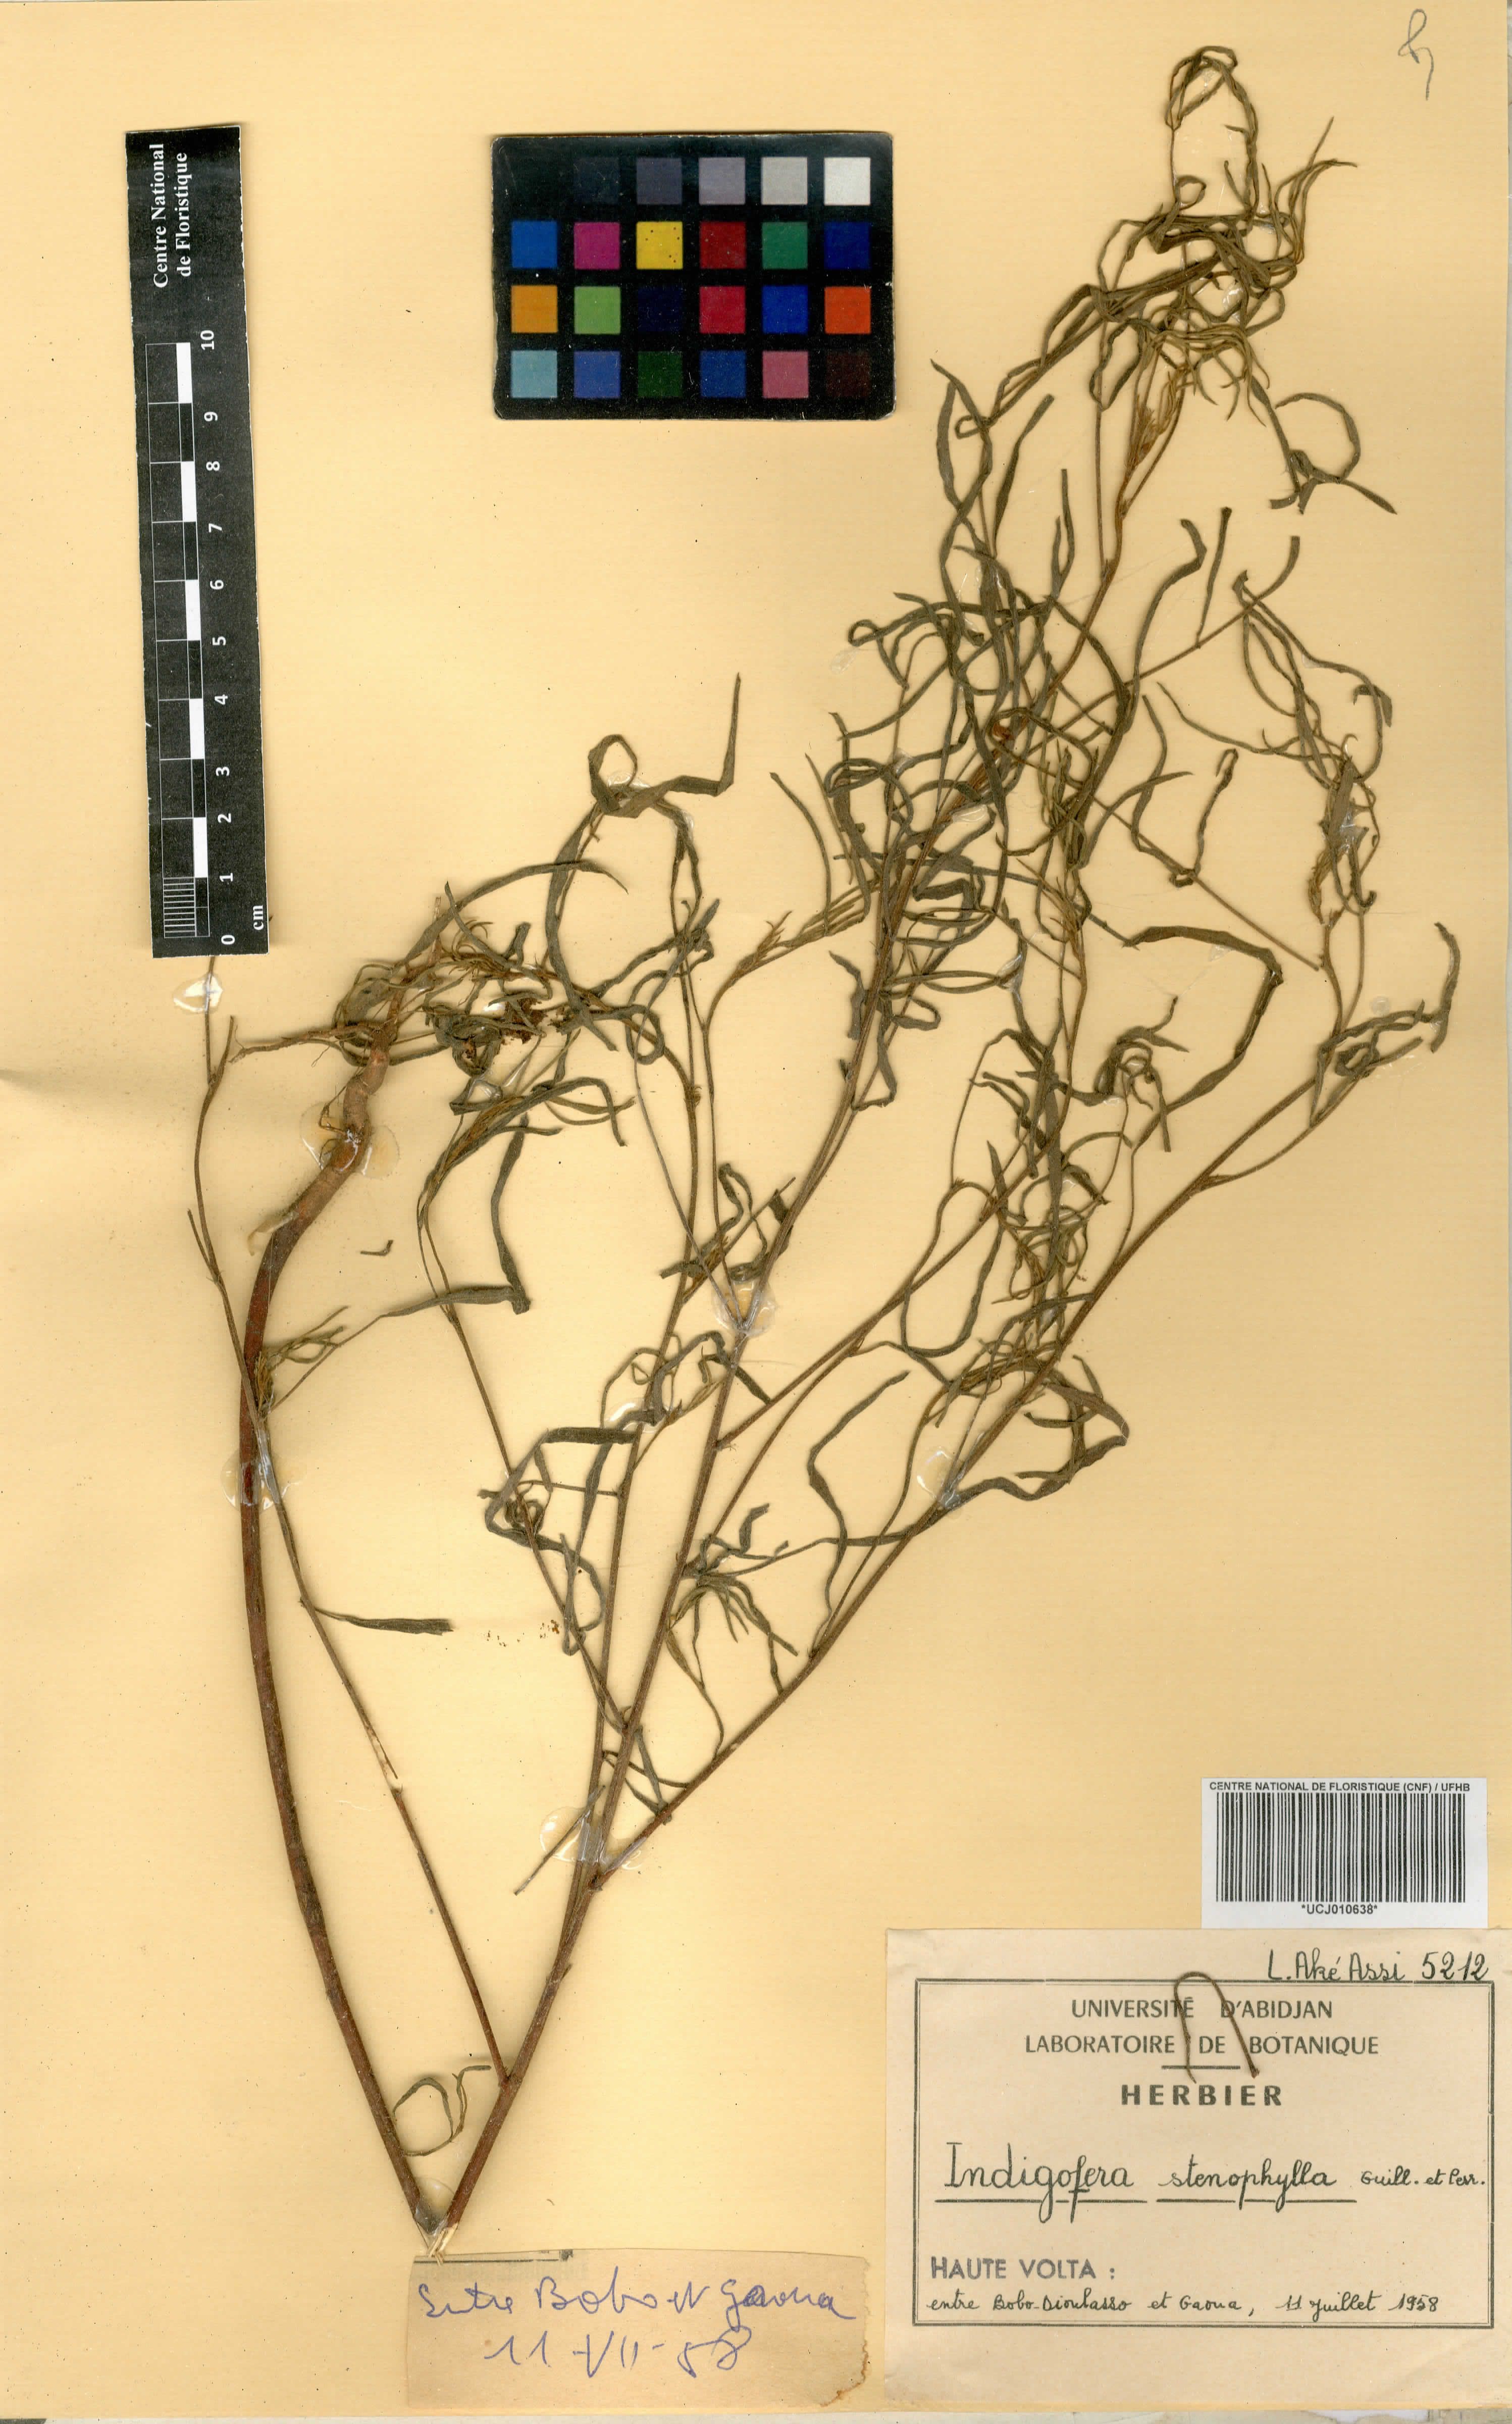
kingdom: Plantae
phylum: Tracheophyta
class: Magnoliopsida
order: Fabales
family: Fabaceae
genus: Indigofera
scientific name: Indigofera suffruticosa
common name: Anil de pasto
